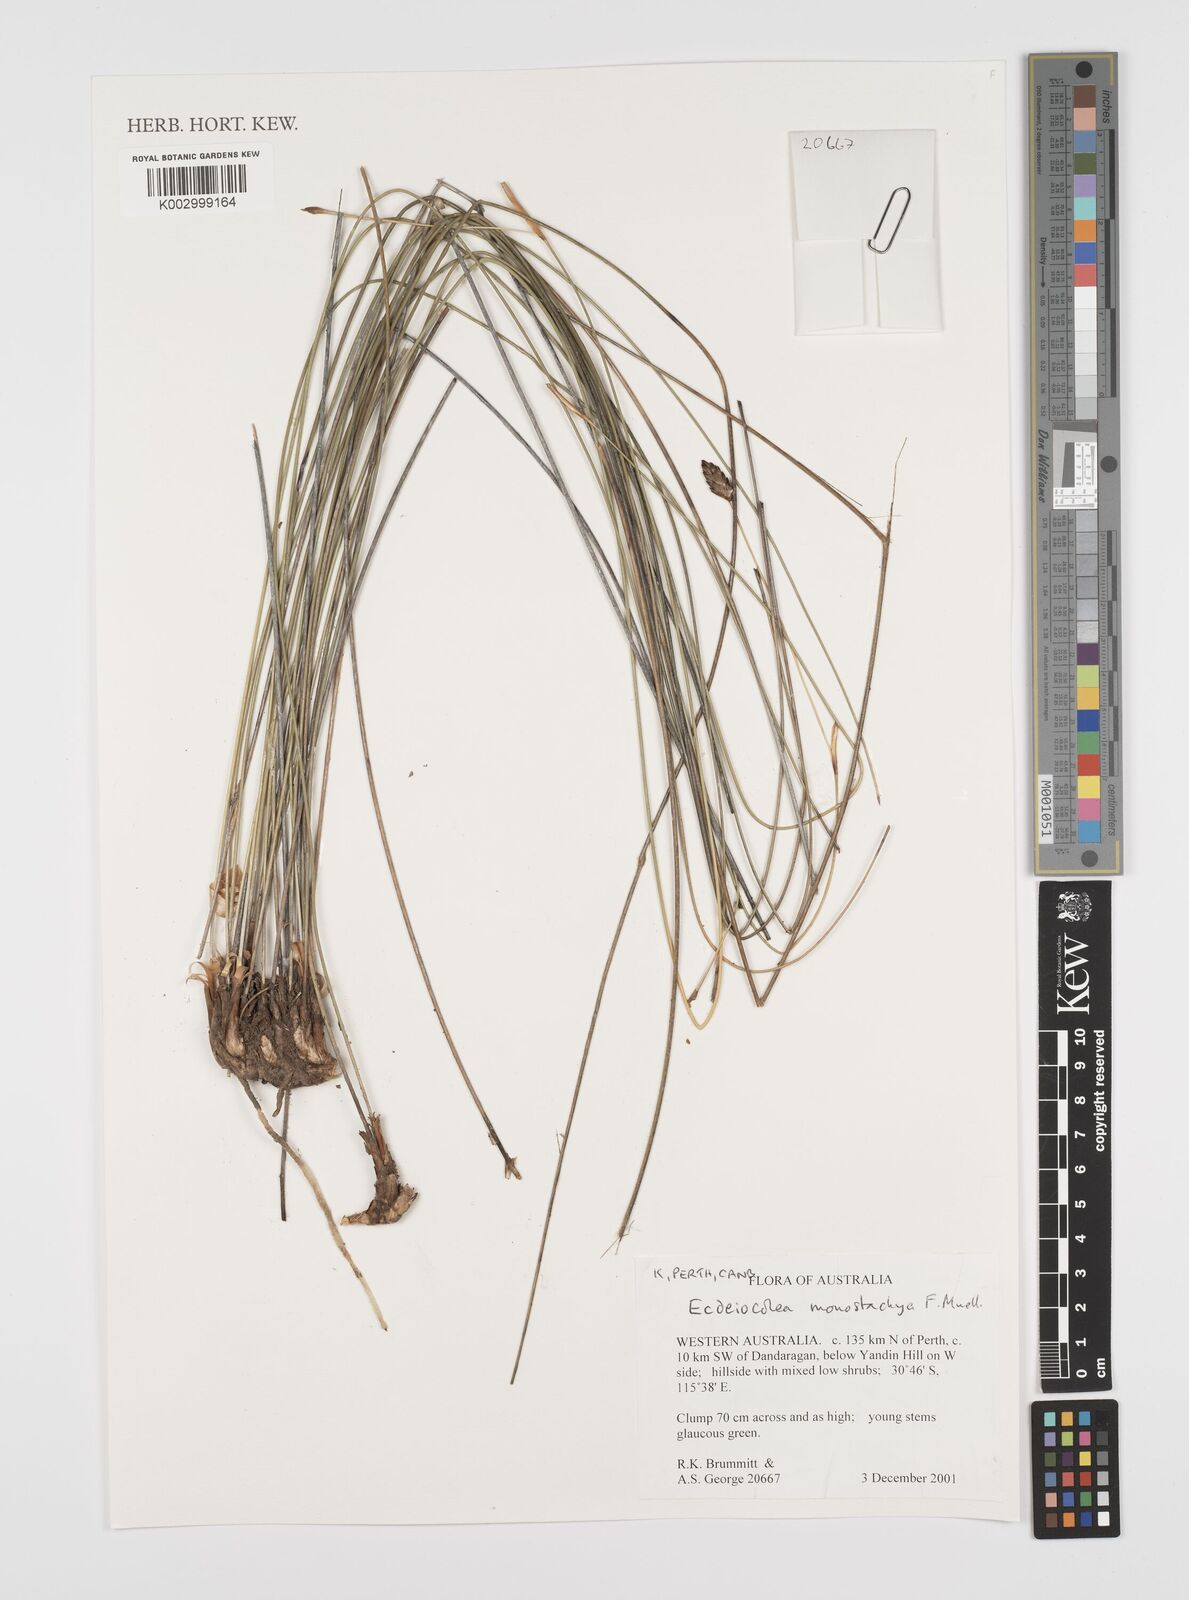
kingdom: Plantae
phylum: Tracheophyta
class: Liliopsida
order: Poales
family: Ecdeiocoleaceae
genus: Ecdeiocolea
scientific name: Ecdeiocolea monostachya
